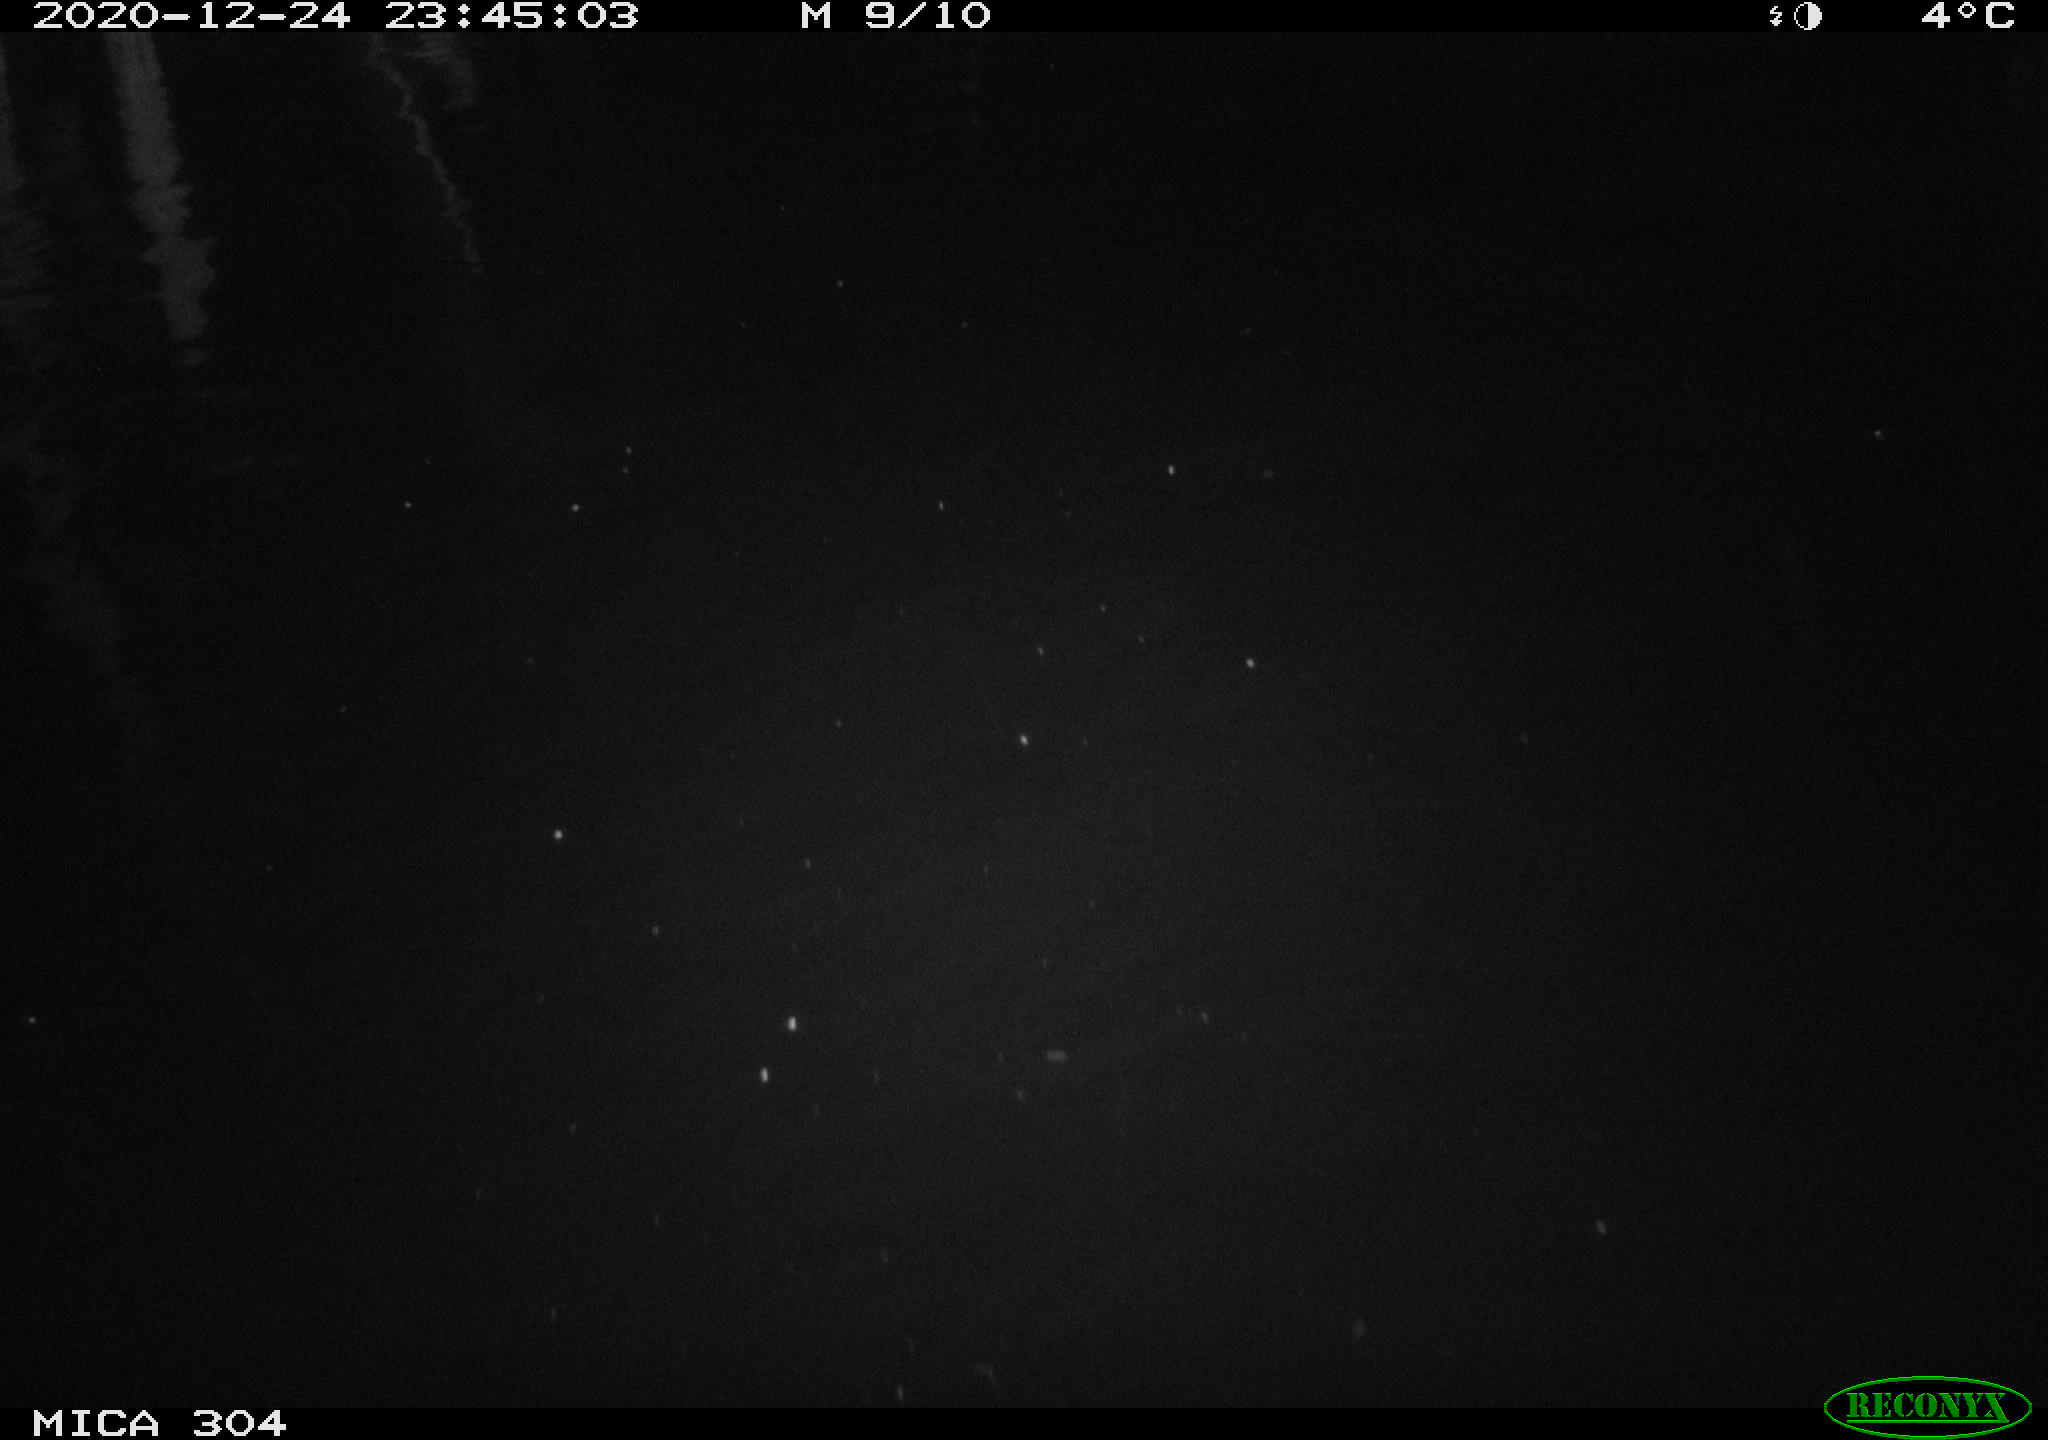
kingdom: Animalia
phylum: Chordata
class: Mammalia
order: Rodentia
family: Muridae
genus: Rattus
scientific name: Rattus norvegicus
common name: Brown rat
